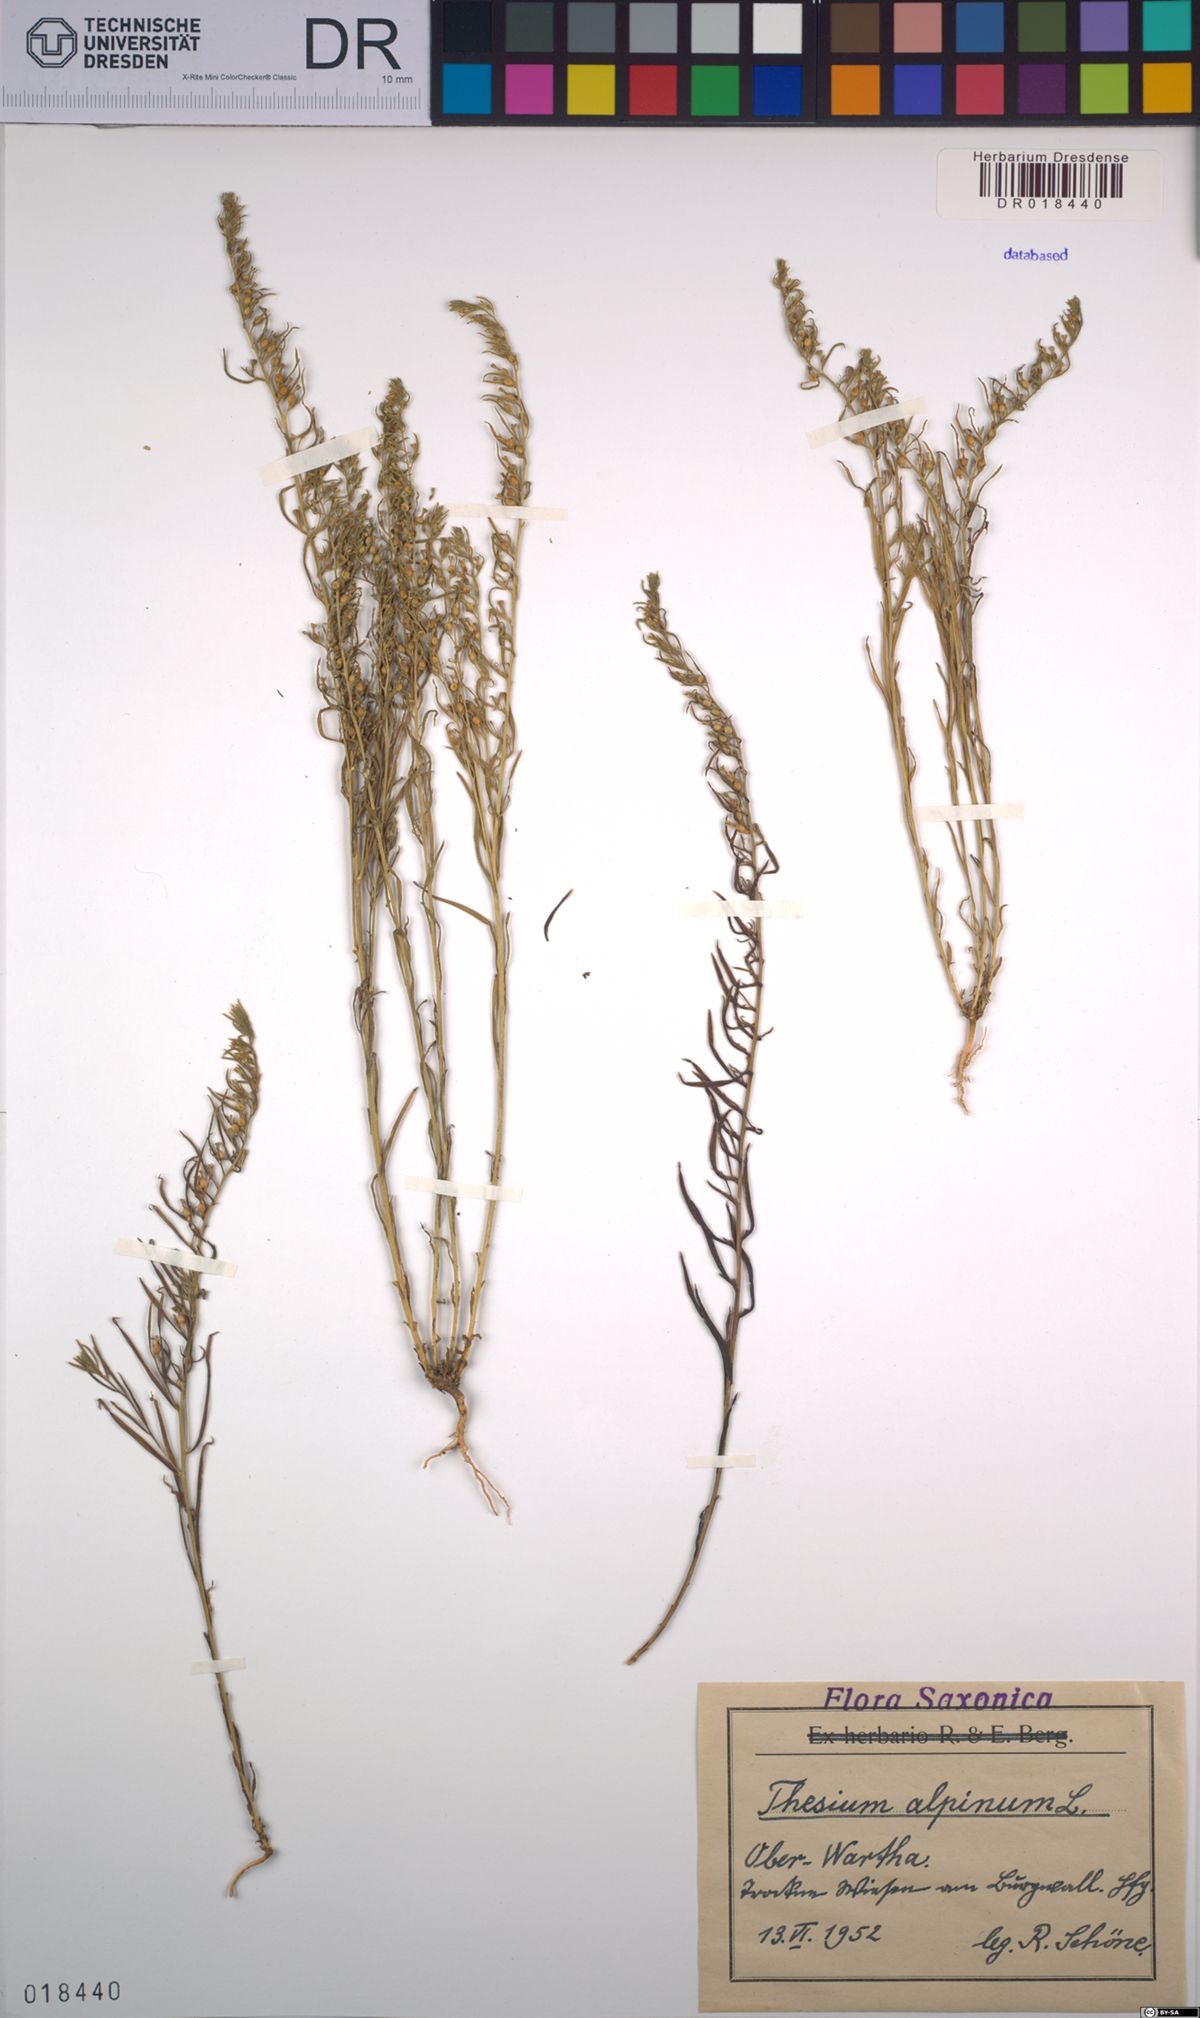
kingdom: Plantae
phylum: Tracheophyta
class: Magnoliopsida
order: Santalales
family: Thesiaceae
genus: Thesium
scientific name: Thesium alpinum
